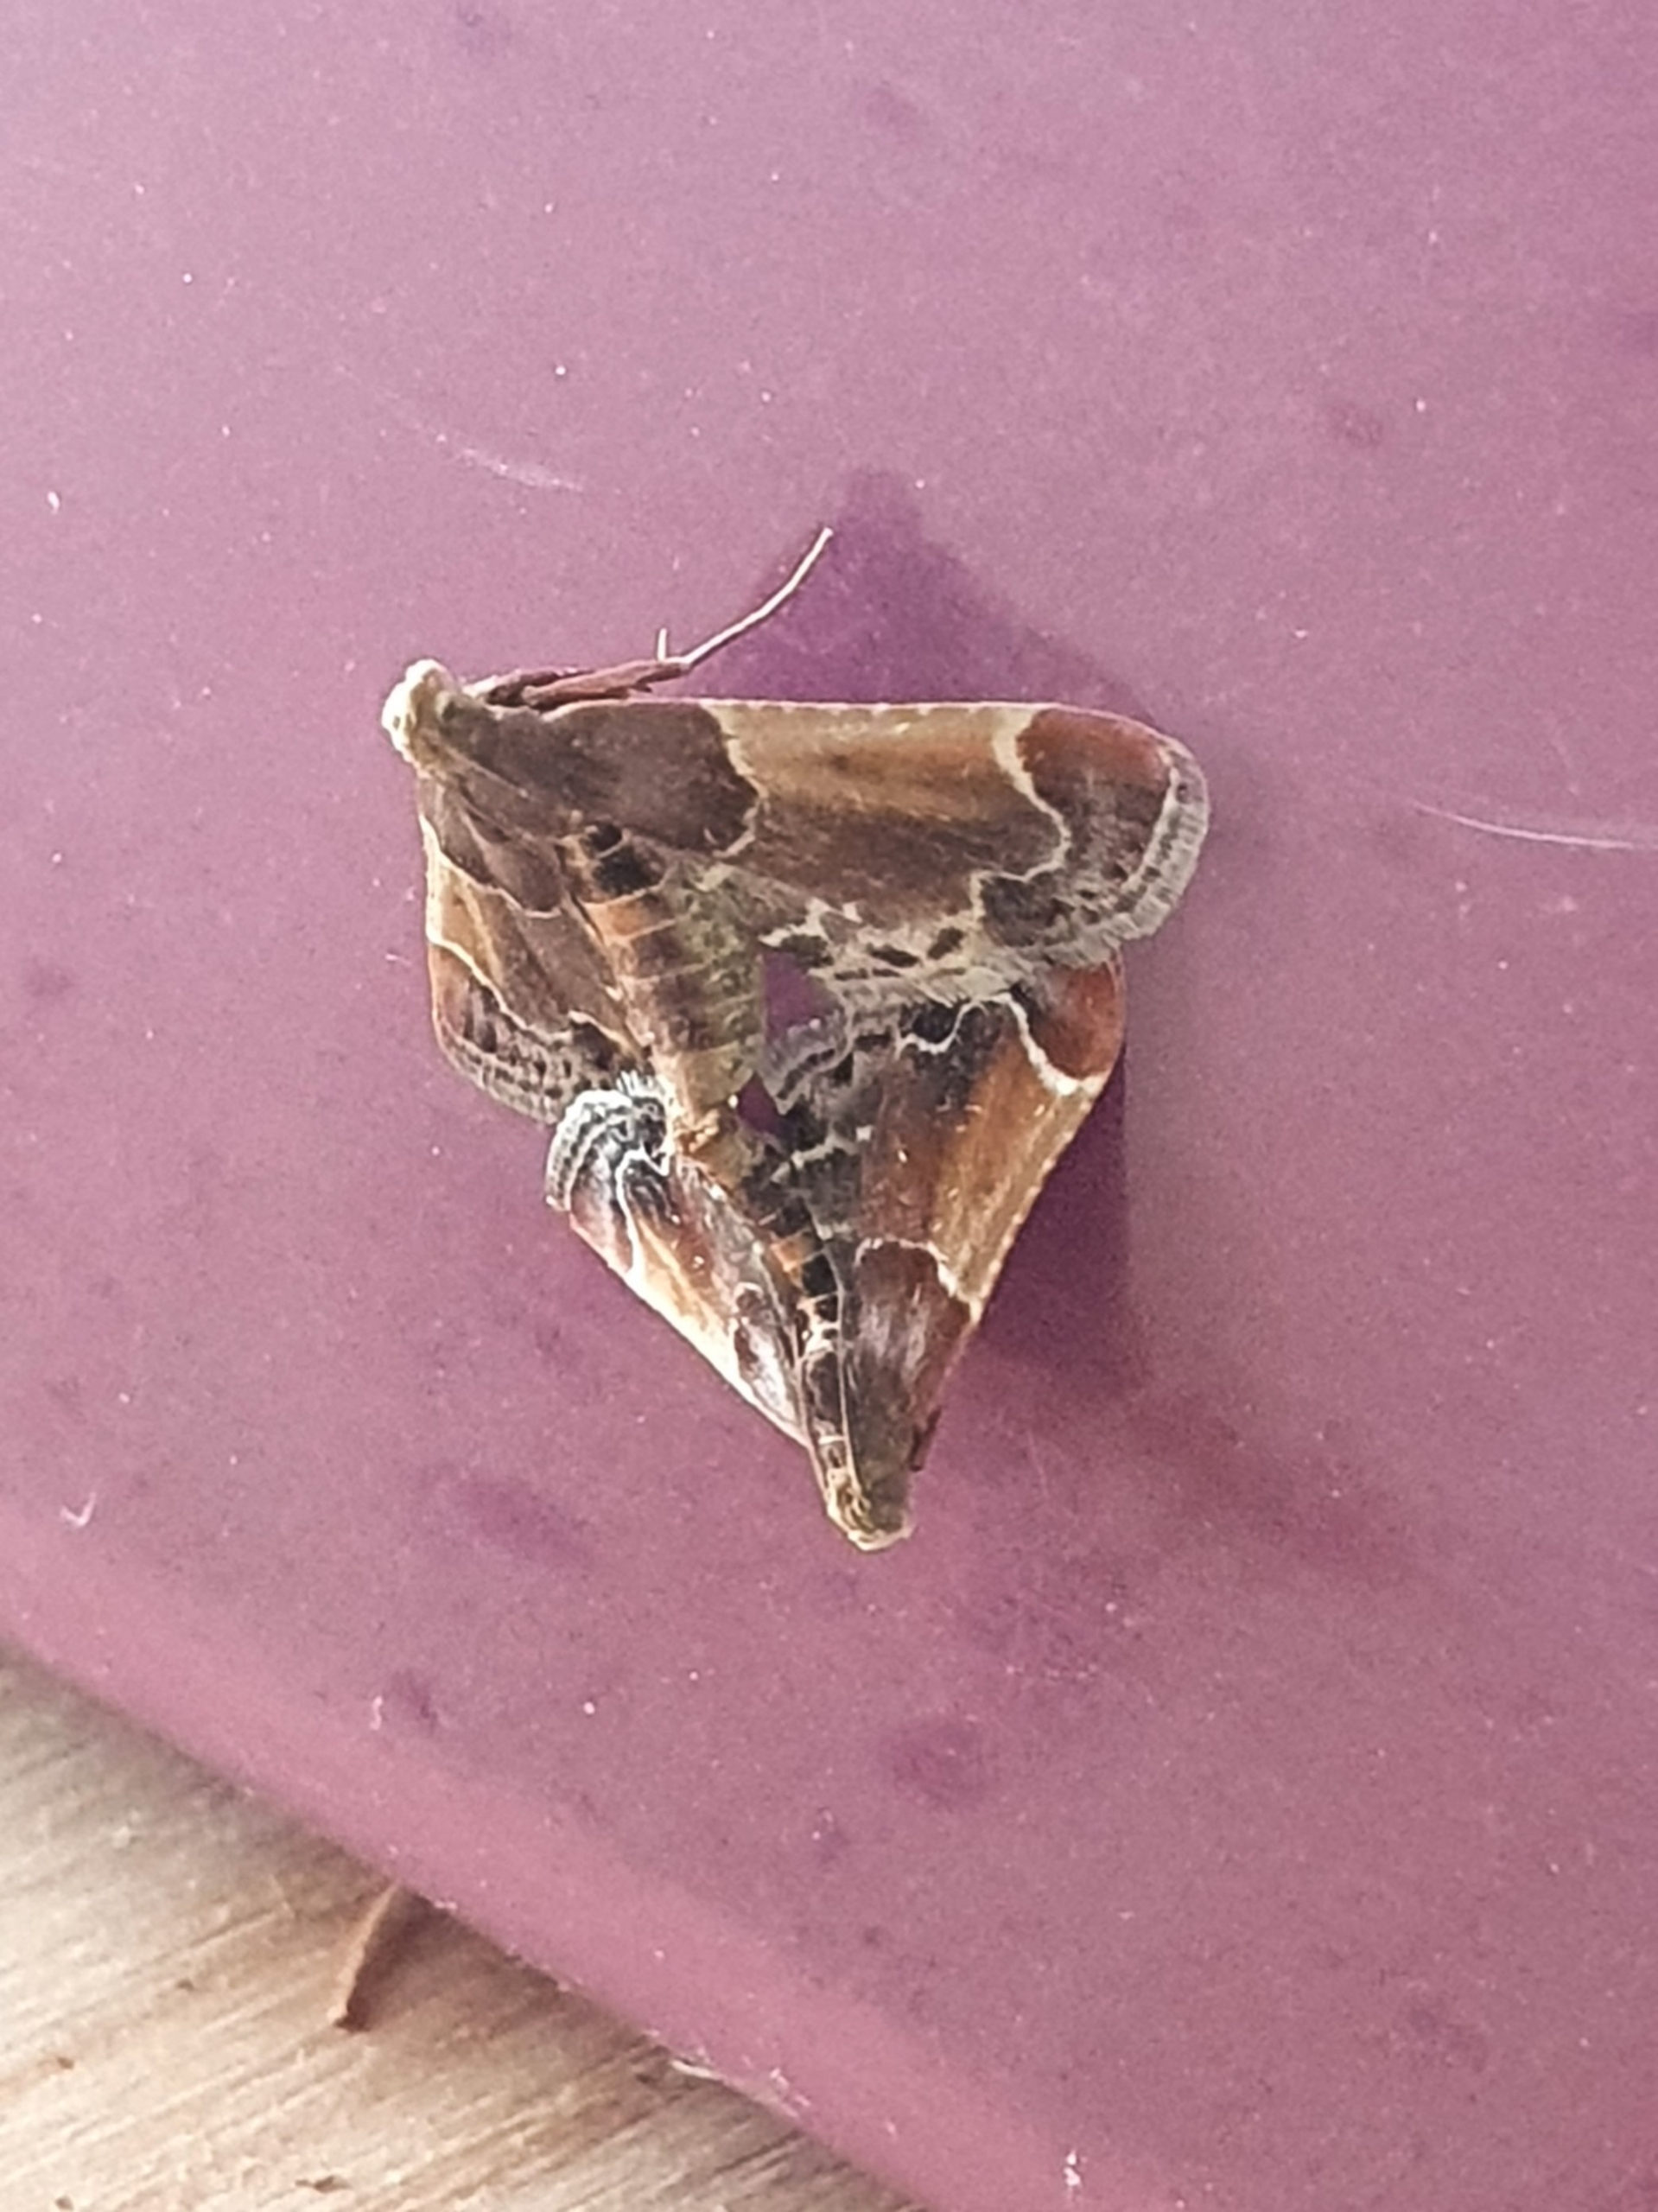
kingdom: Animalia
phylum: Arthropoda
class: Insecta
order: Lepidoptera
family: Pyralidae
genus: Pyralis
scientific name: Pyralis farinalis
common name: Stort melmøl
